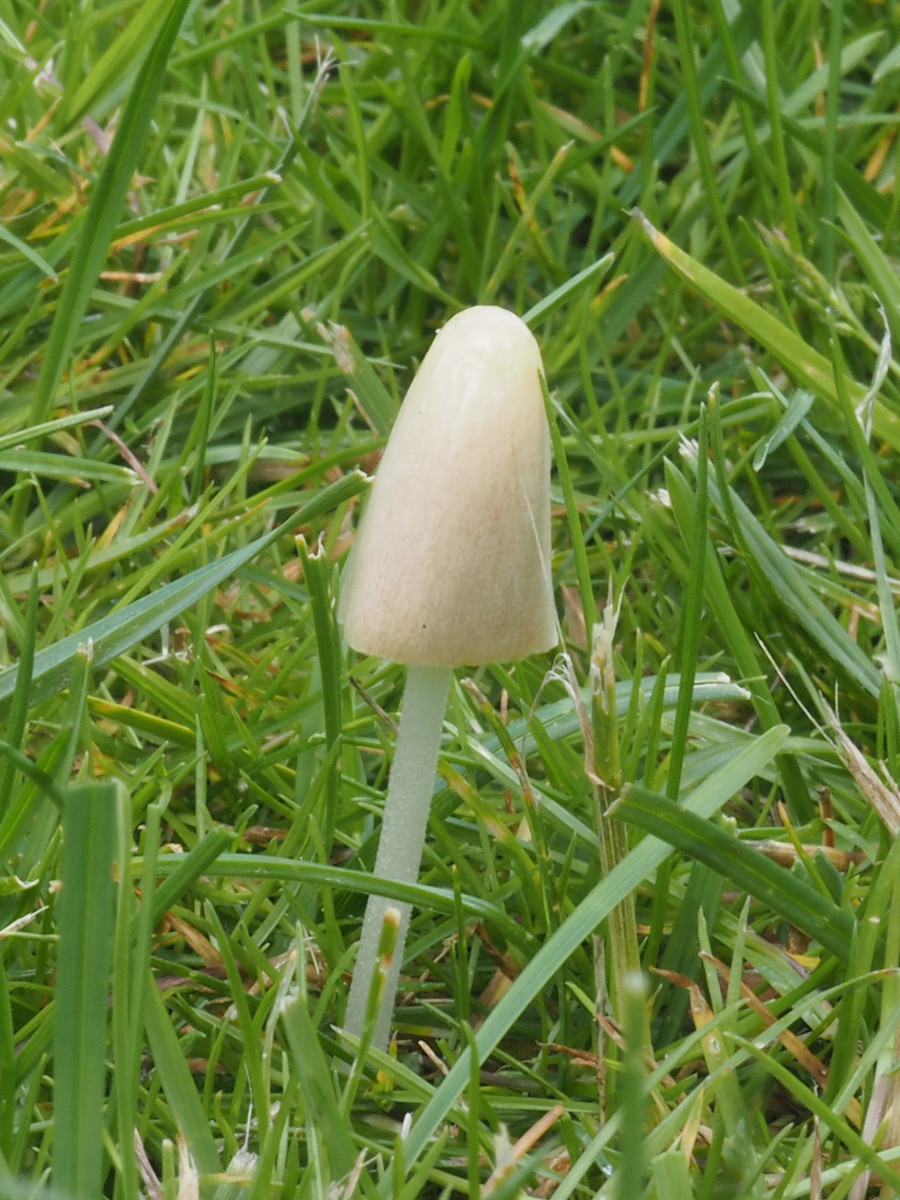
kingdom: Fungi
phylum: Basidiomycota
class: Agaricomycetes
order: Agaricales
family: Bolbitiaceae
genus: Conocybe
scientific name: Conocybe apala
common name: mælkehvid keglehat
